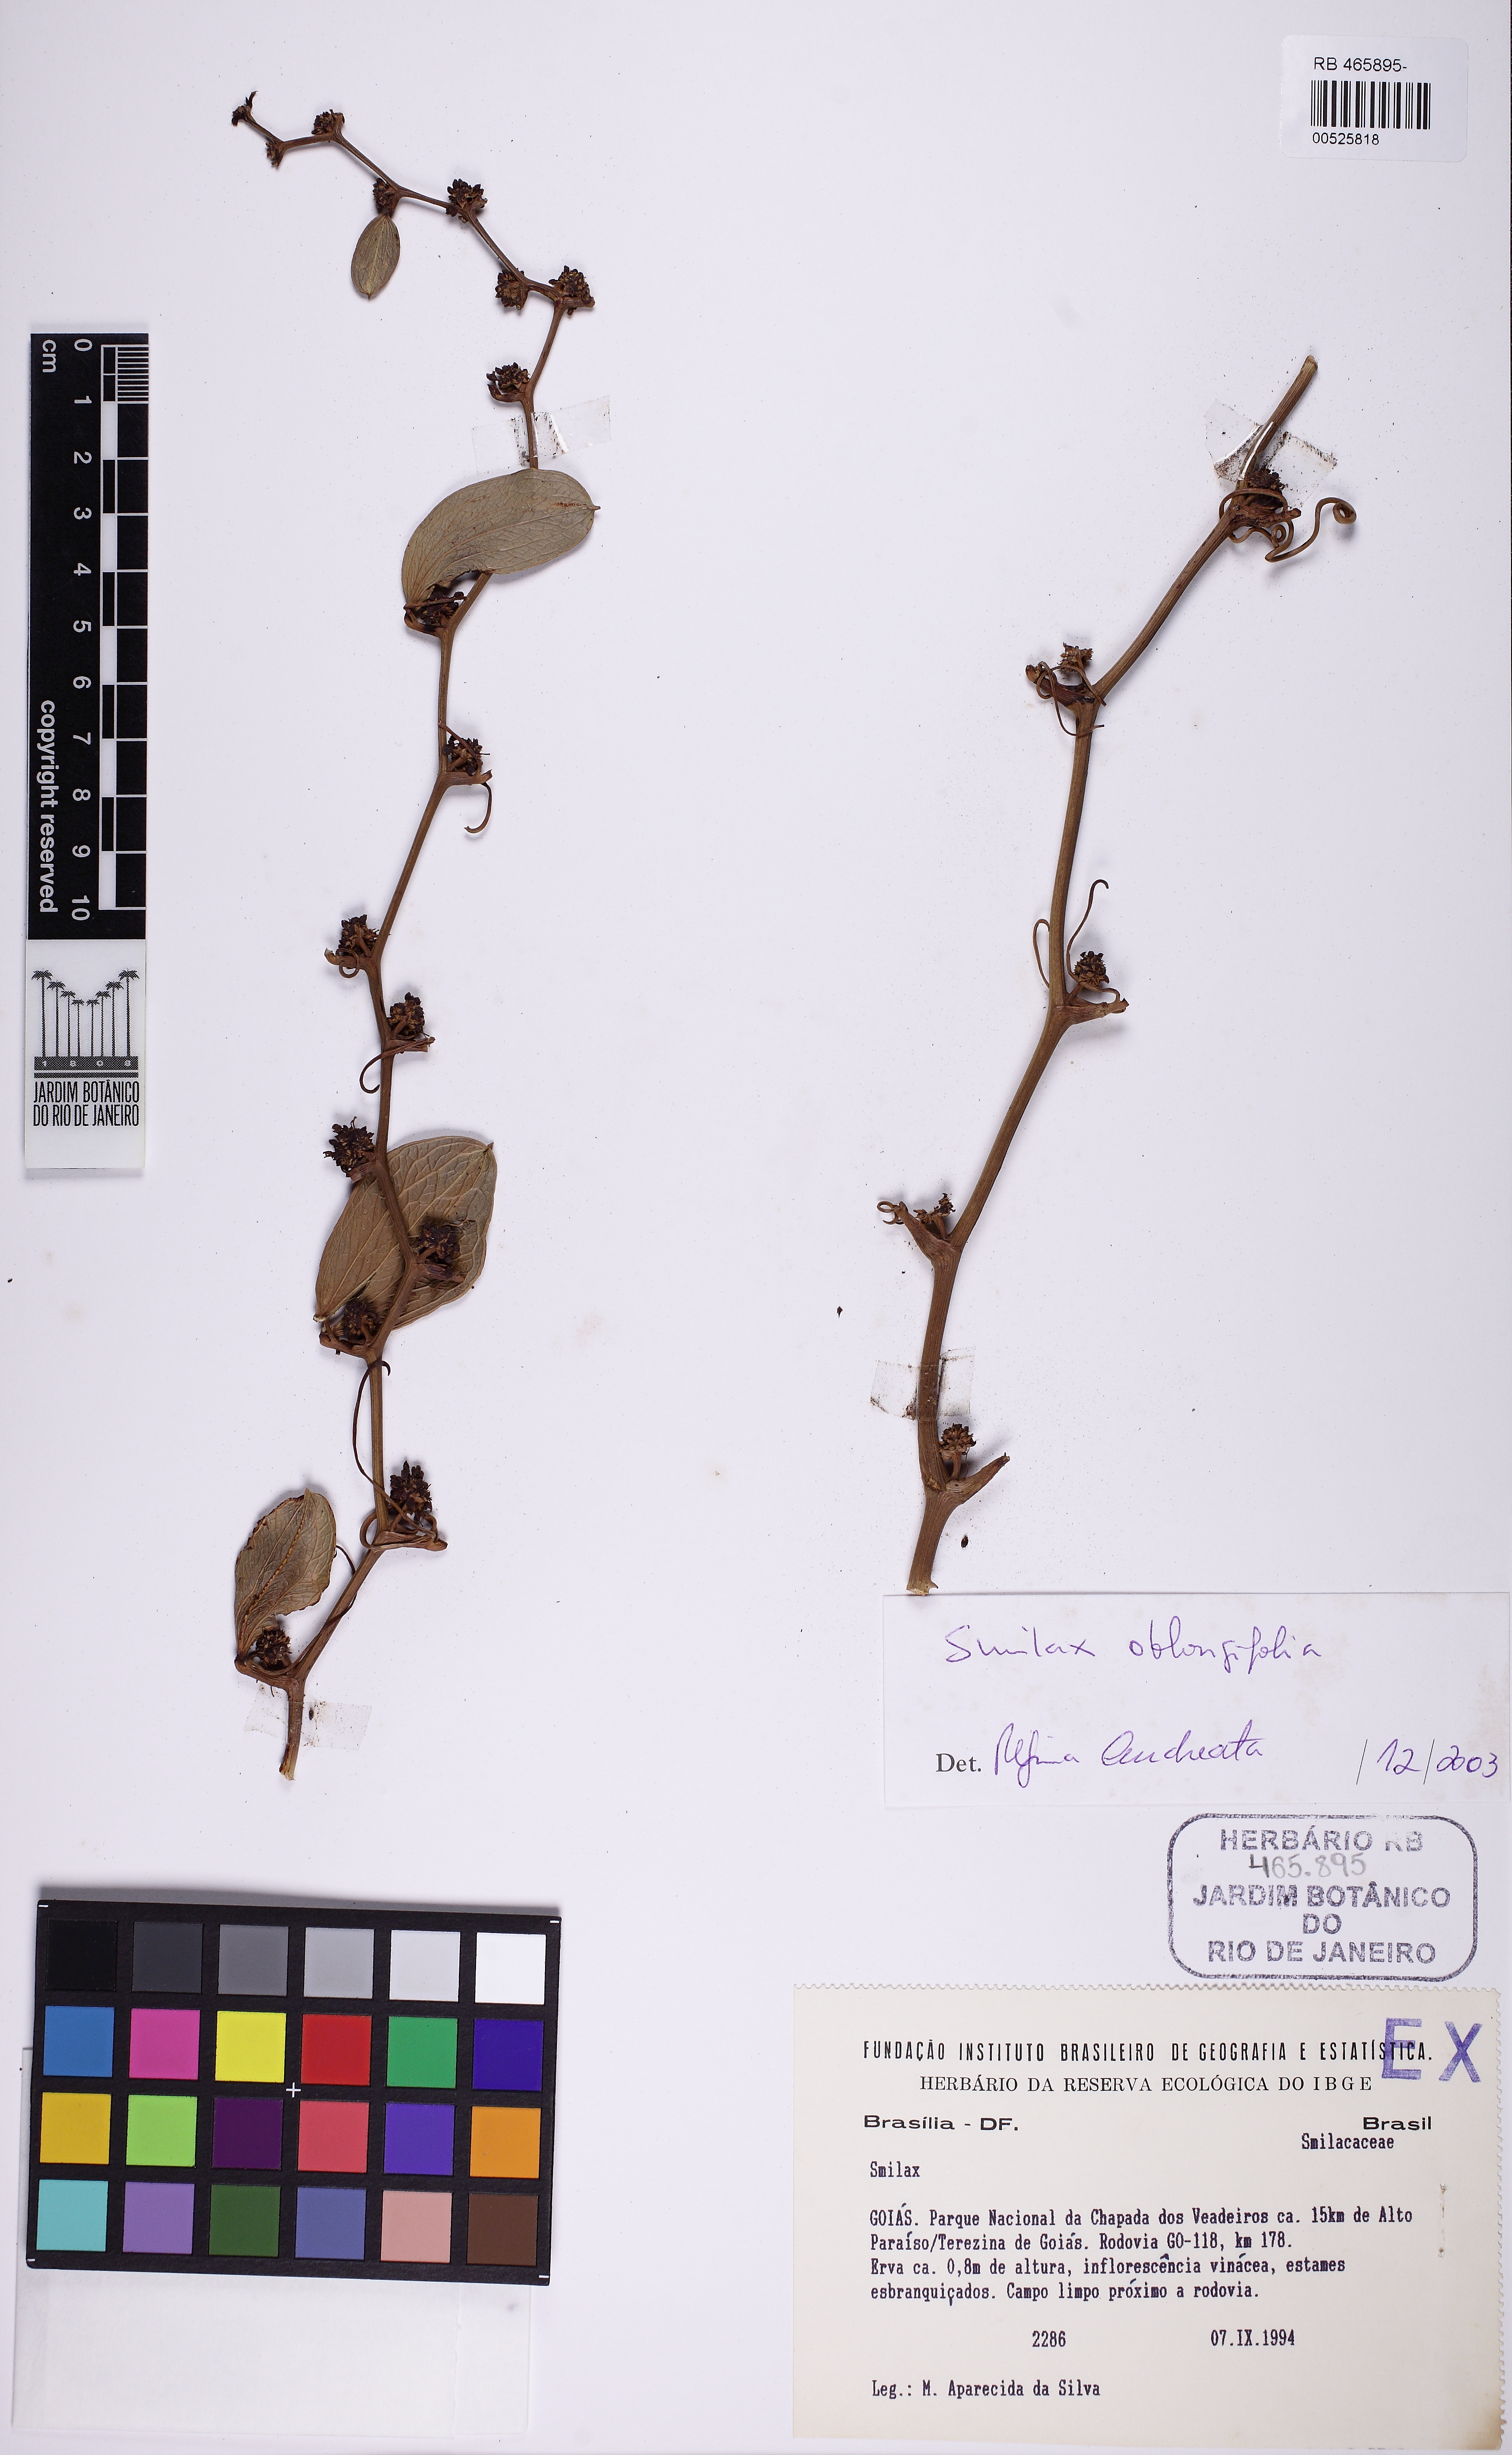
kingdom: Plantae
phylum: Tracheophyta
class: Liliopsida
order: Liliales
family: Smilacaceae
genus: Smilax
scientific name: Smilax oblongifolia
